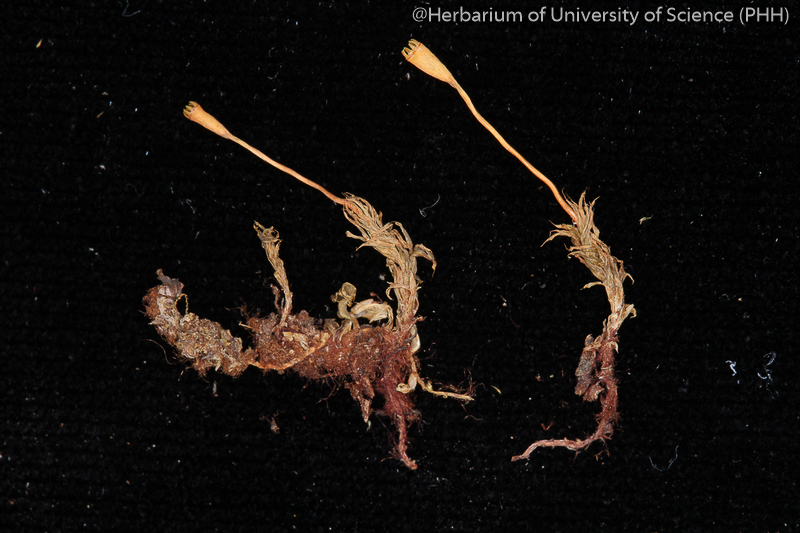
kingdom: Plantae
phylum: Bryophyta
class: Bryopsida
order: Splachnales
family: Splachnaceae
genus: Tayloria
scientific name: Tayloria subglabra
